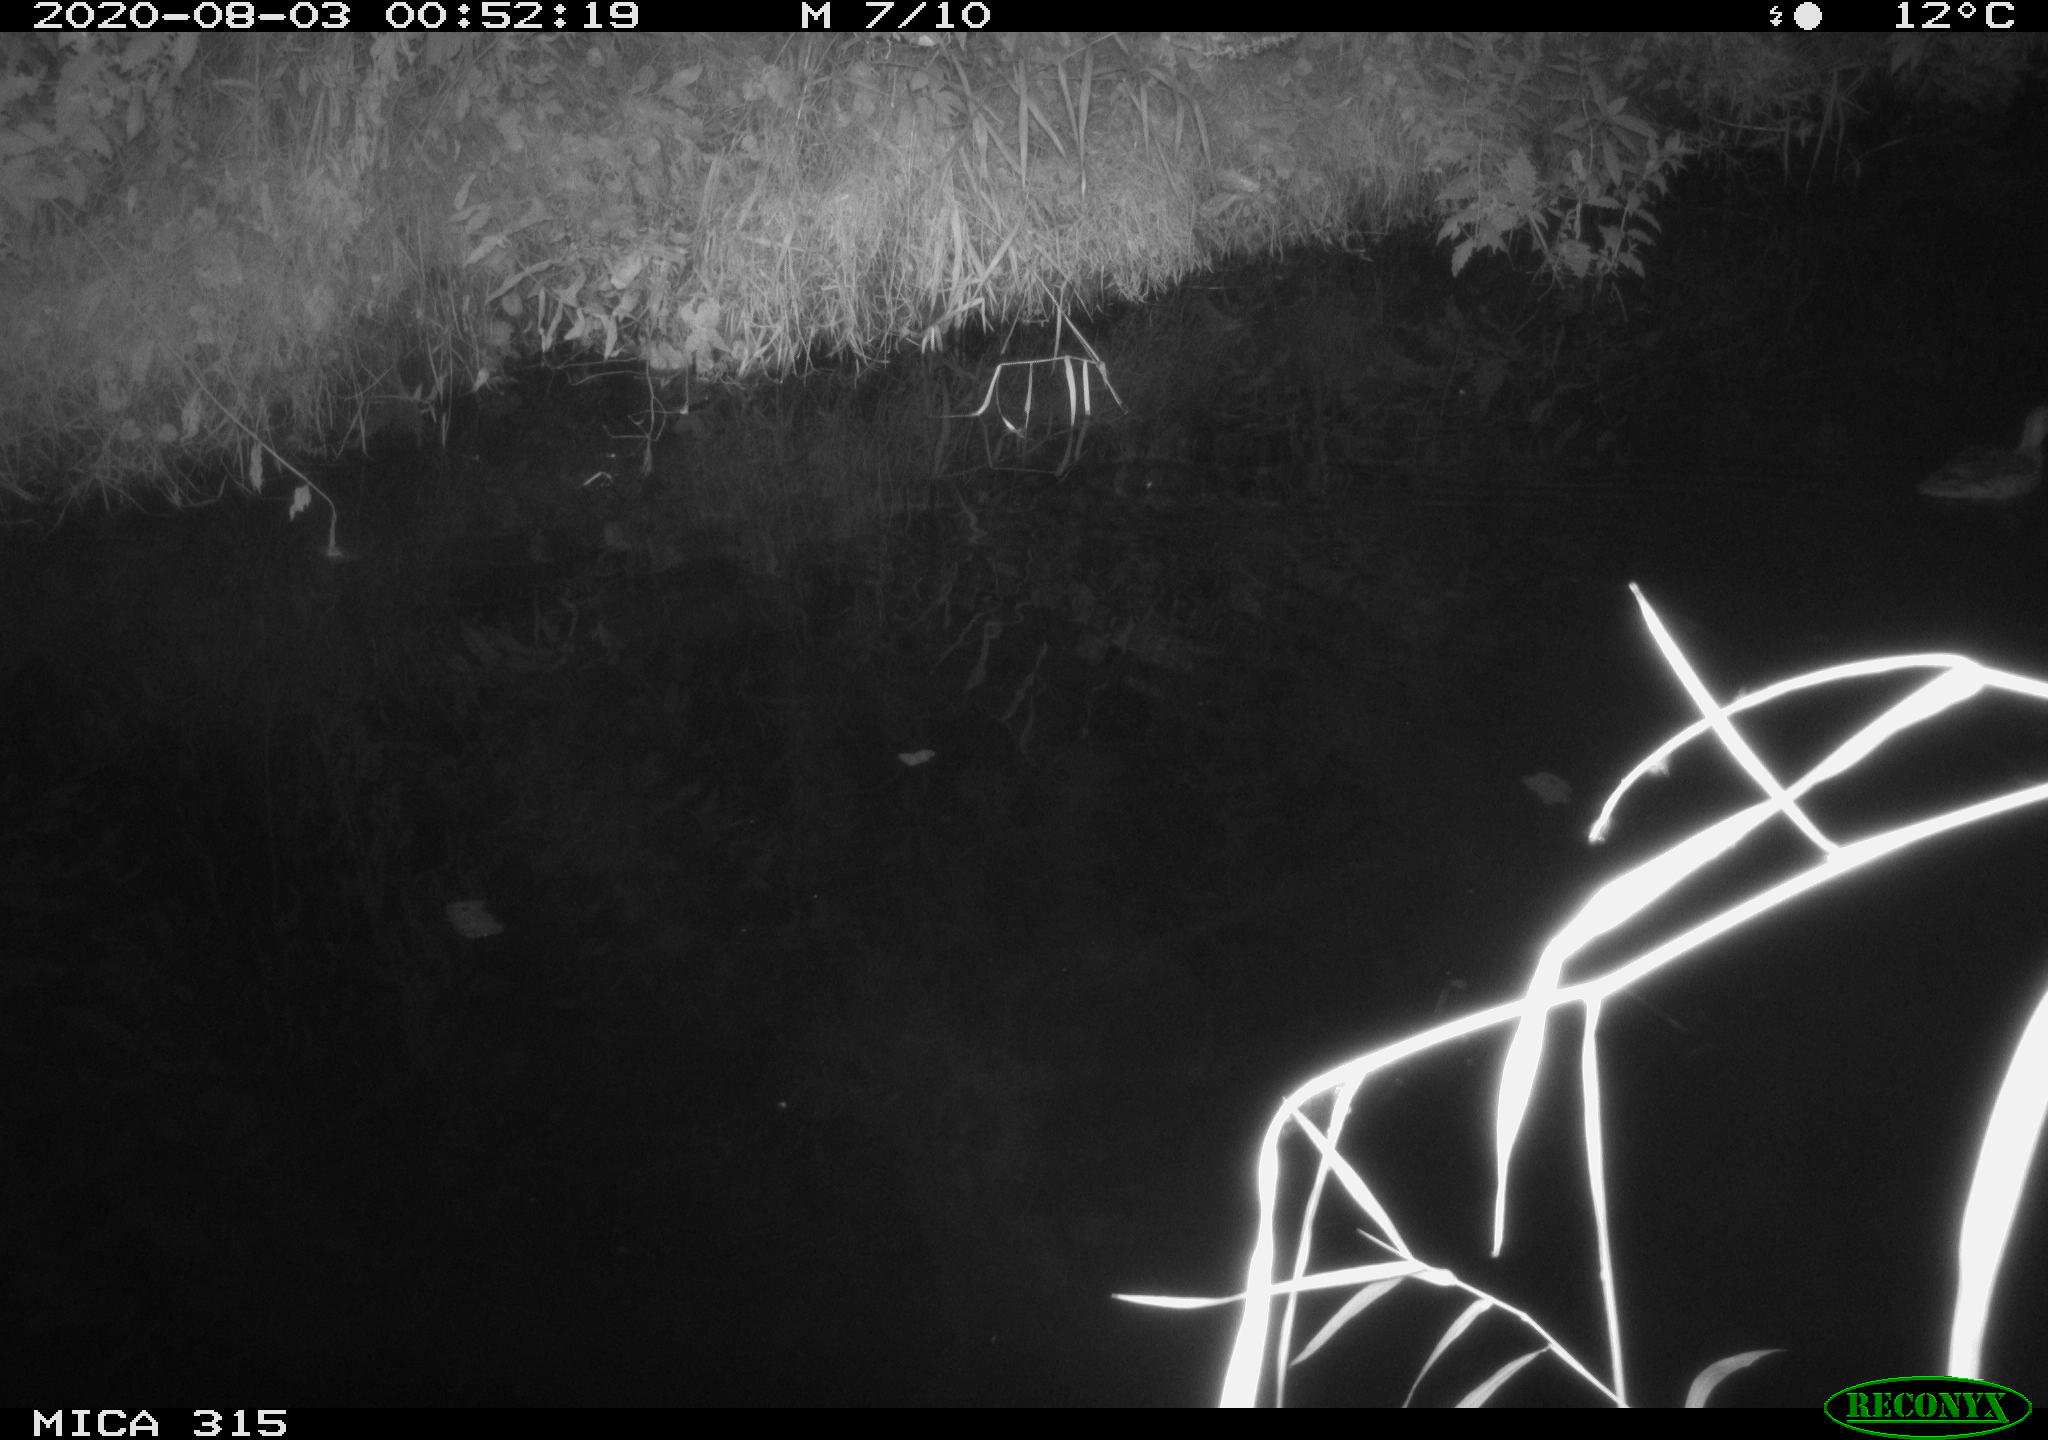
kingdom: Animalia
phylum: Chordata
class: Aves
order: Anseriformes
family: Anatidae
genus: Anas
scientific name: Anas platyrhynchos
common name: Mallard
